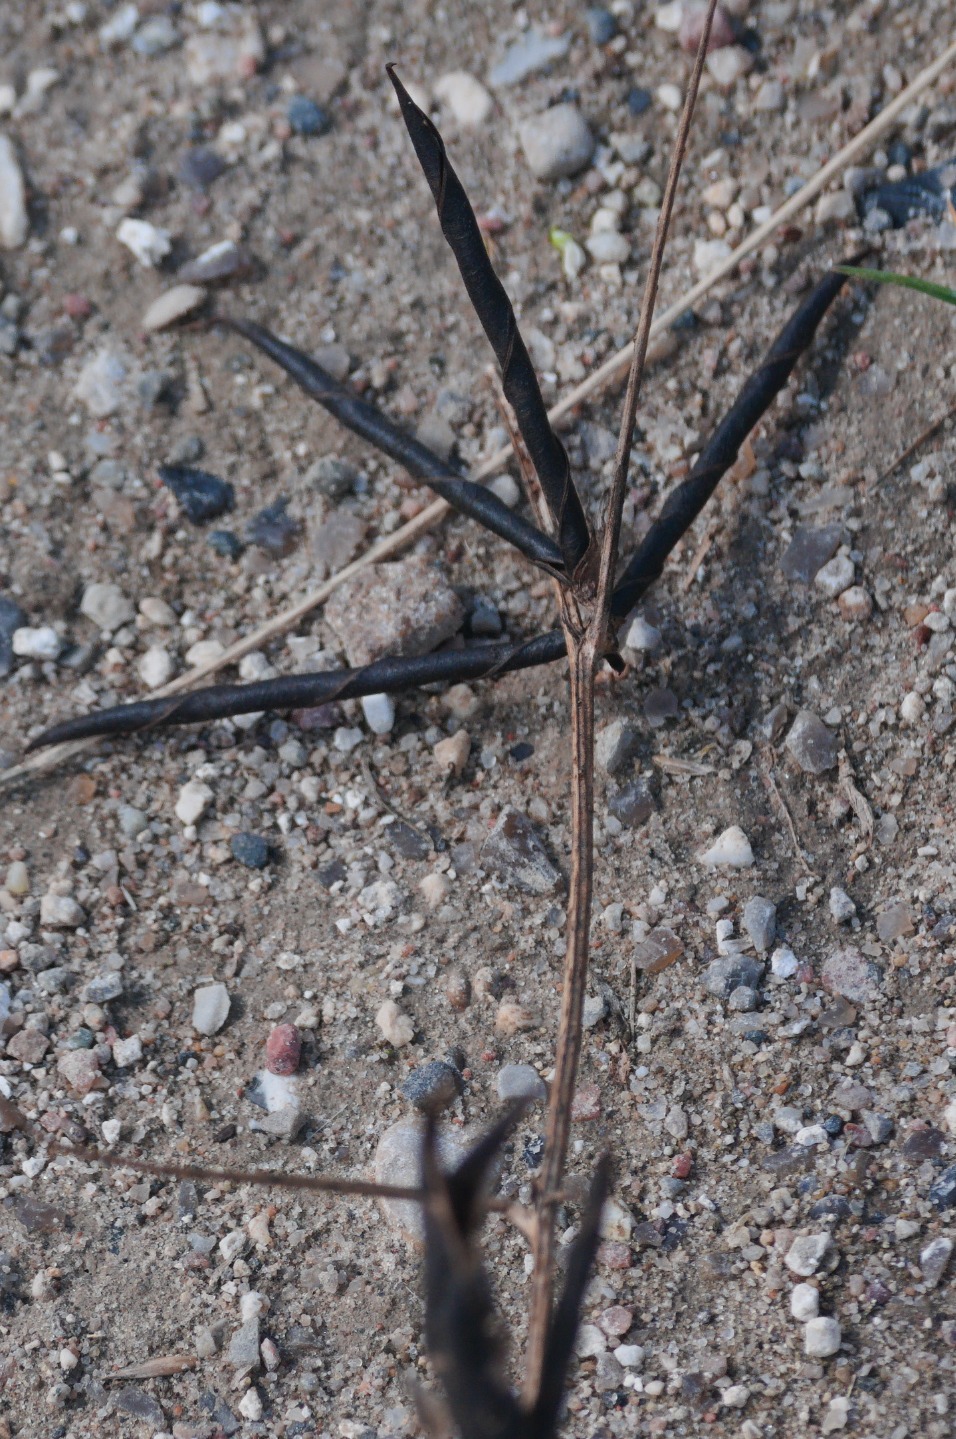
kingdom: Plantae
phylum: Tracheophyta
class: Magnoliopsida
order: Fabales
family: Fabaceae
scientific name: Fabaceae
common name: Ærteblomstfamilien
